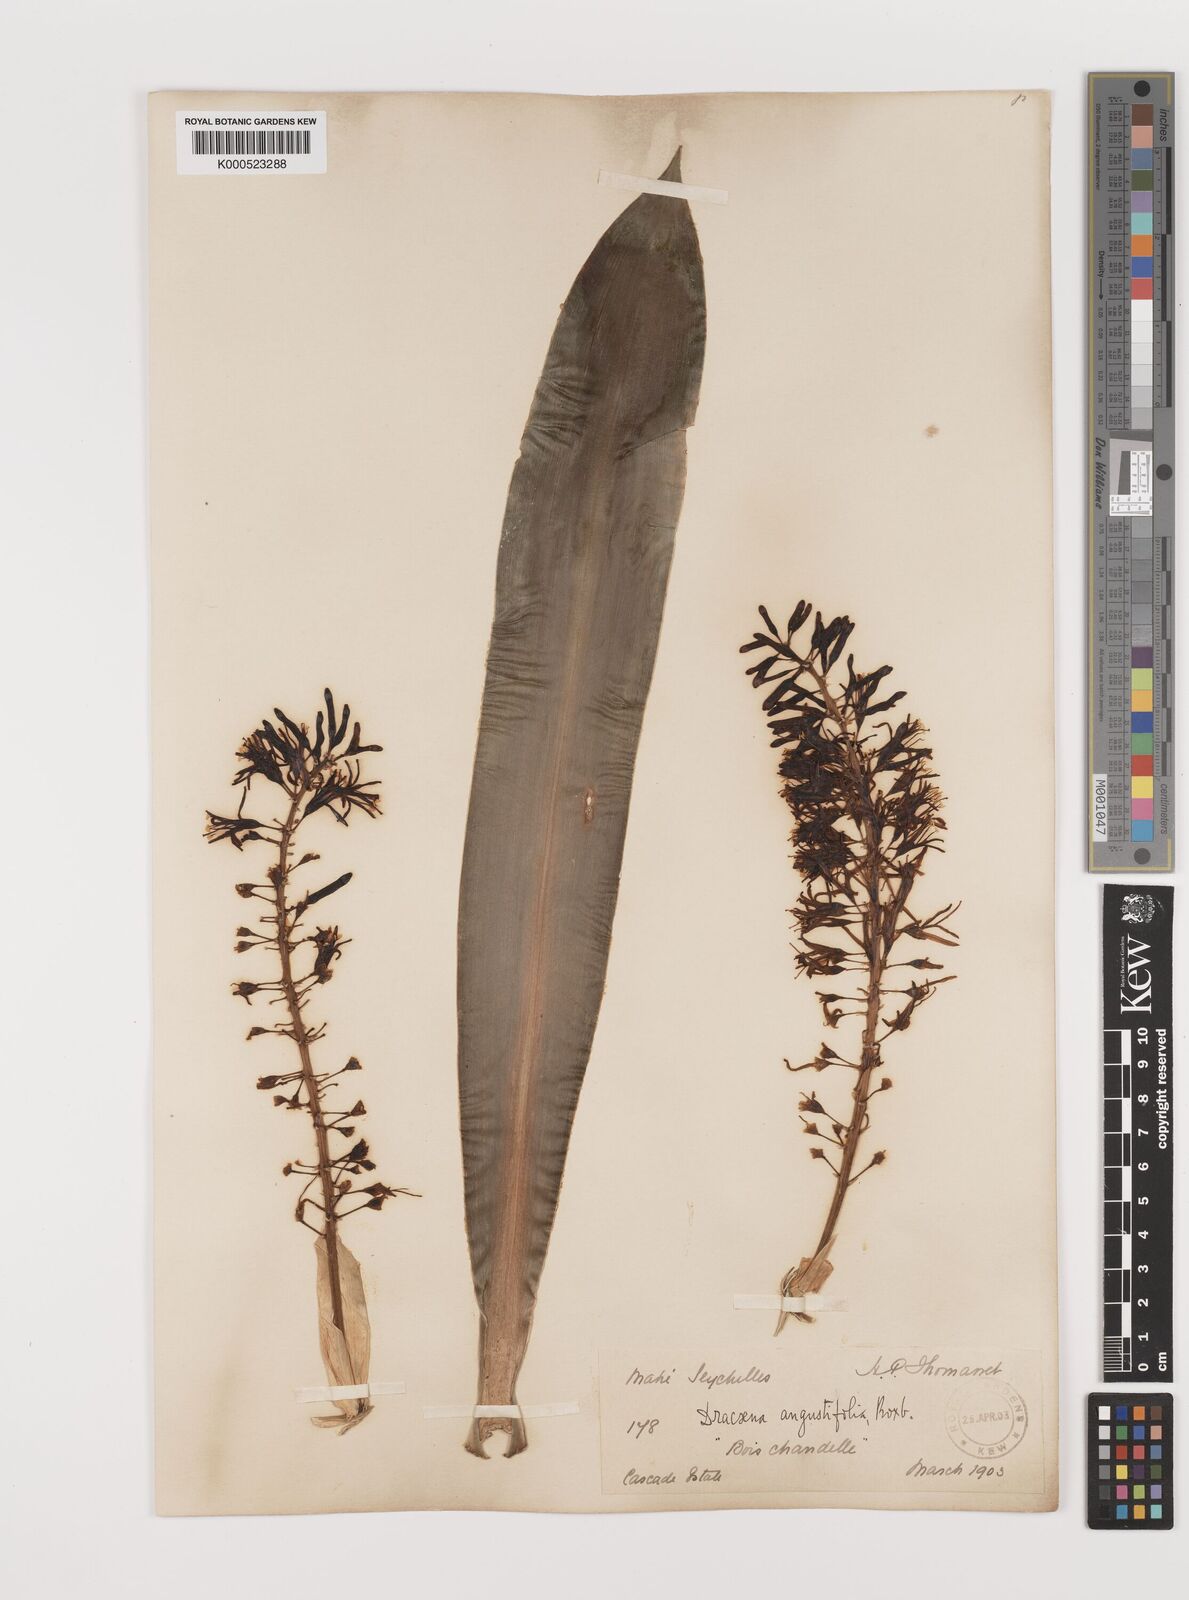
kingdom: Plantae
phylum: Tracheophyta
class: Liliopsida
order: Asparagales
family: Asparagaceae
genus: Dracaena
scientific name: Dracaena angustifolia
